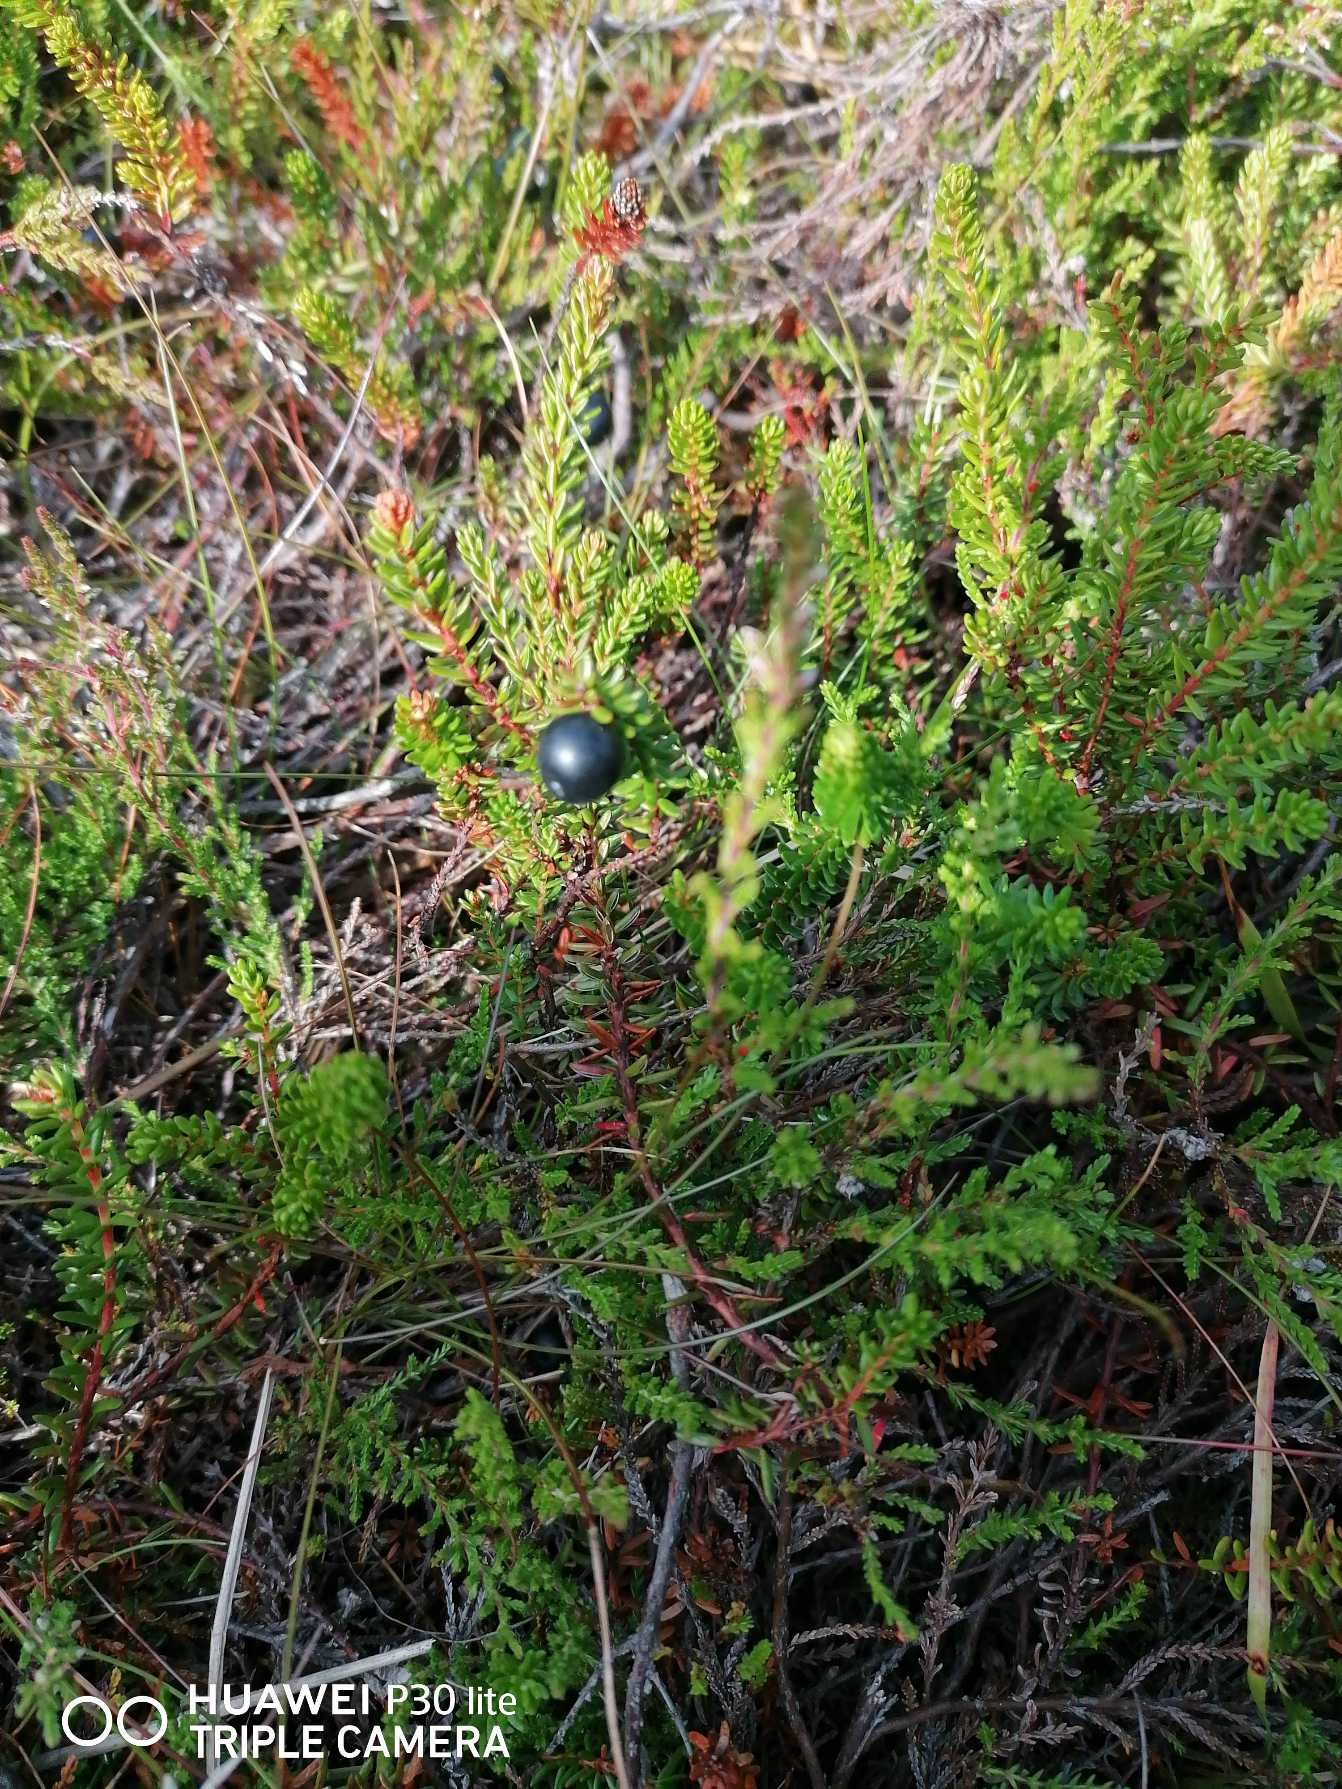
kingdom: Plantae
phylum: Tracheophyta
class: Magnoliopsida
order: Ericales
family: Ericaceae
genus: Empetrum
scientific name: Empetrum nigrum
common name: Revling
